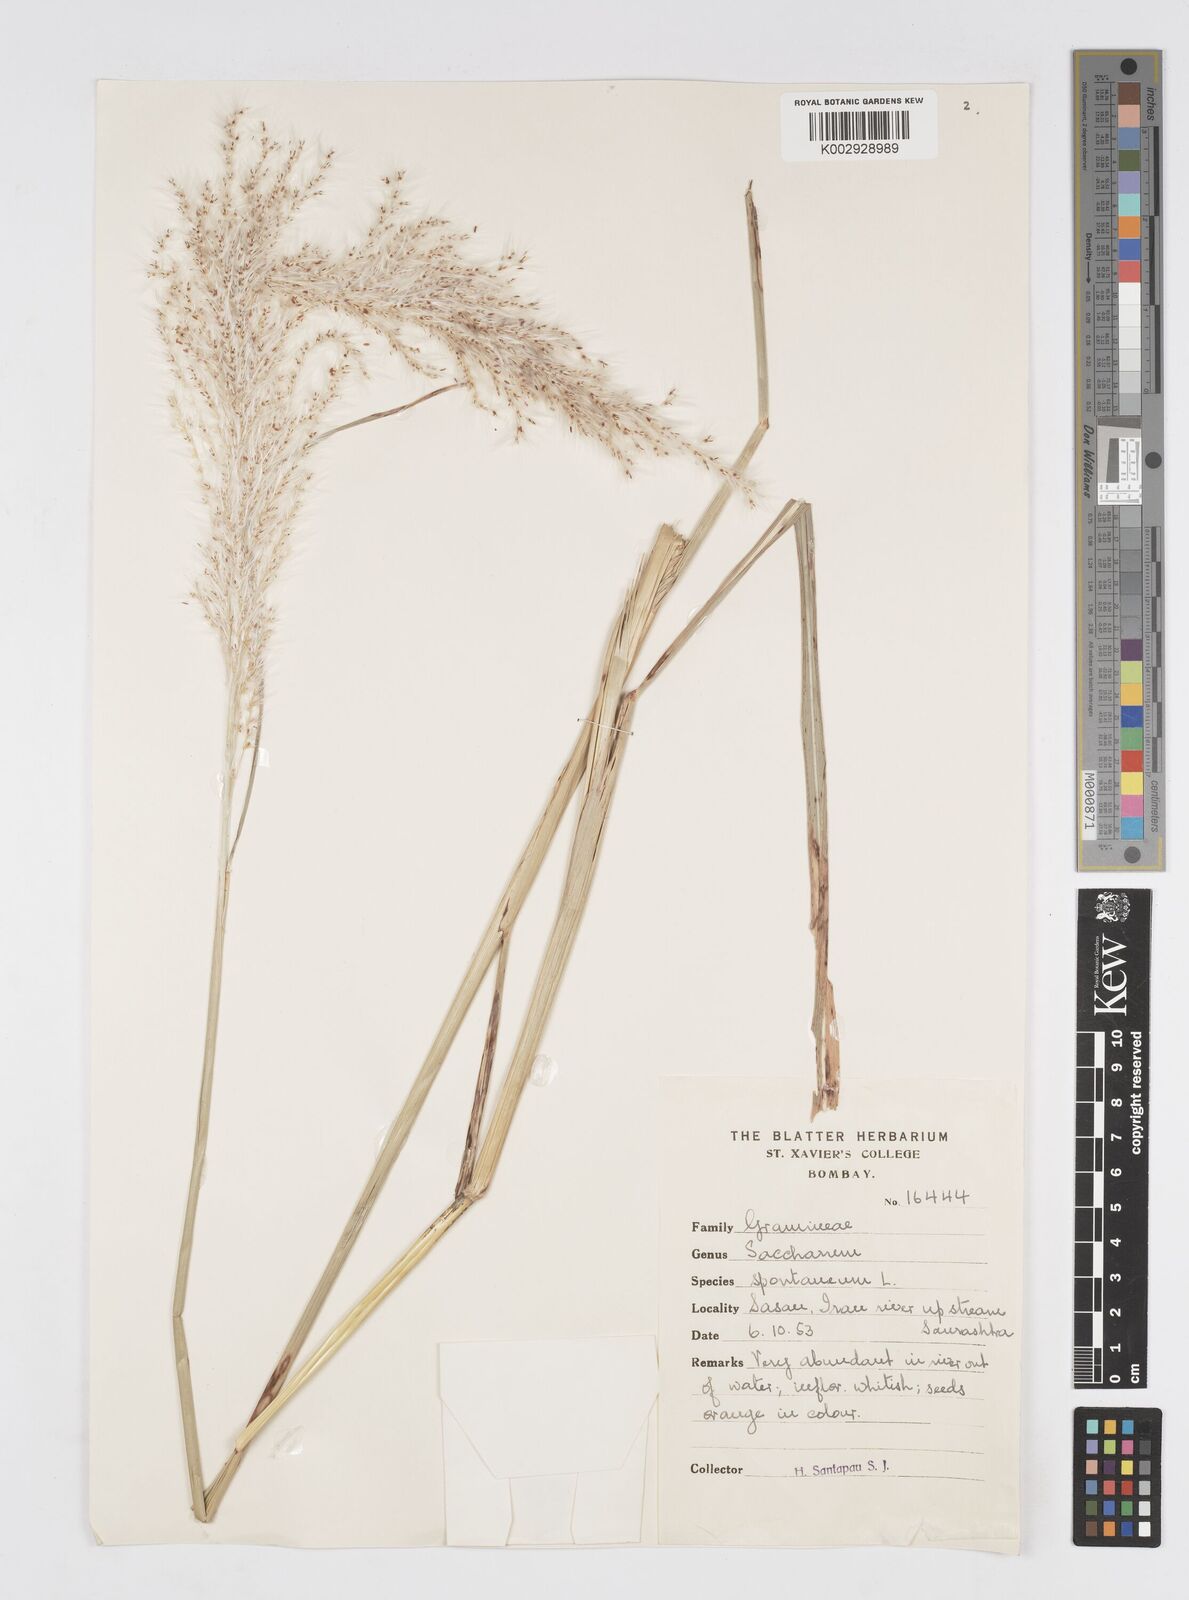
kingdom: Plantae
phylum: Tracheophyta
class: Liliopsida
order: Poales
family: Poaceae
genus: Saccharum
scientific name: Saccharum spontaneum
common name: Wild sugarcane
